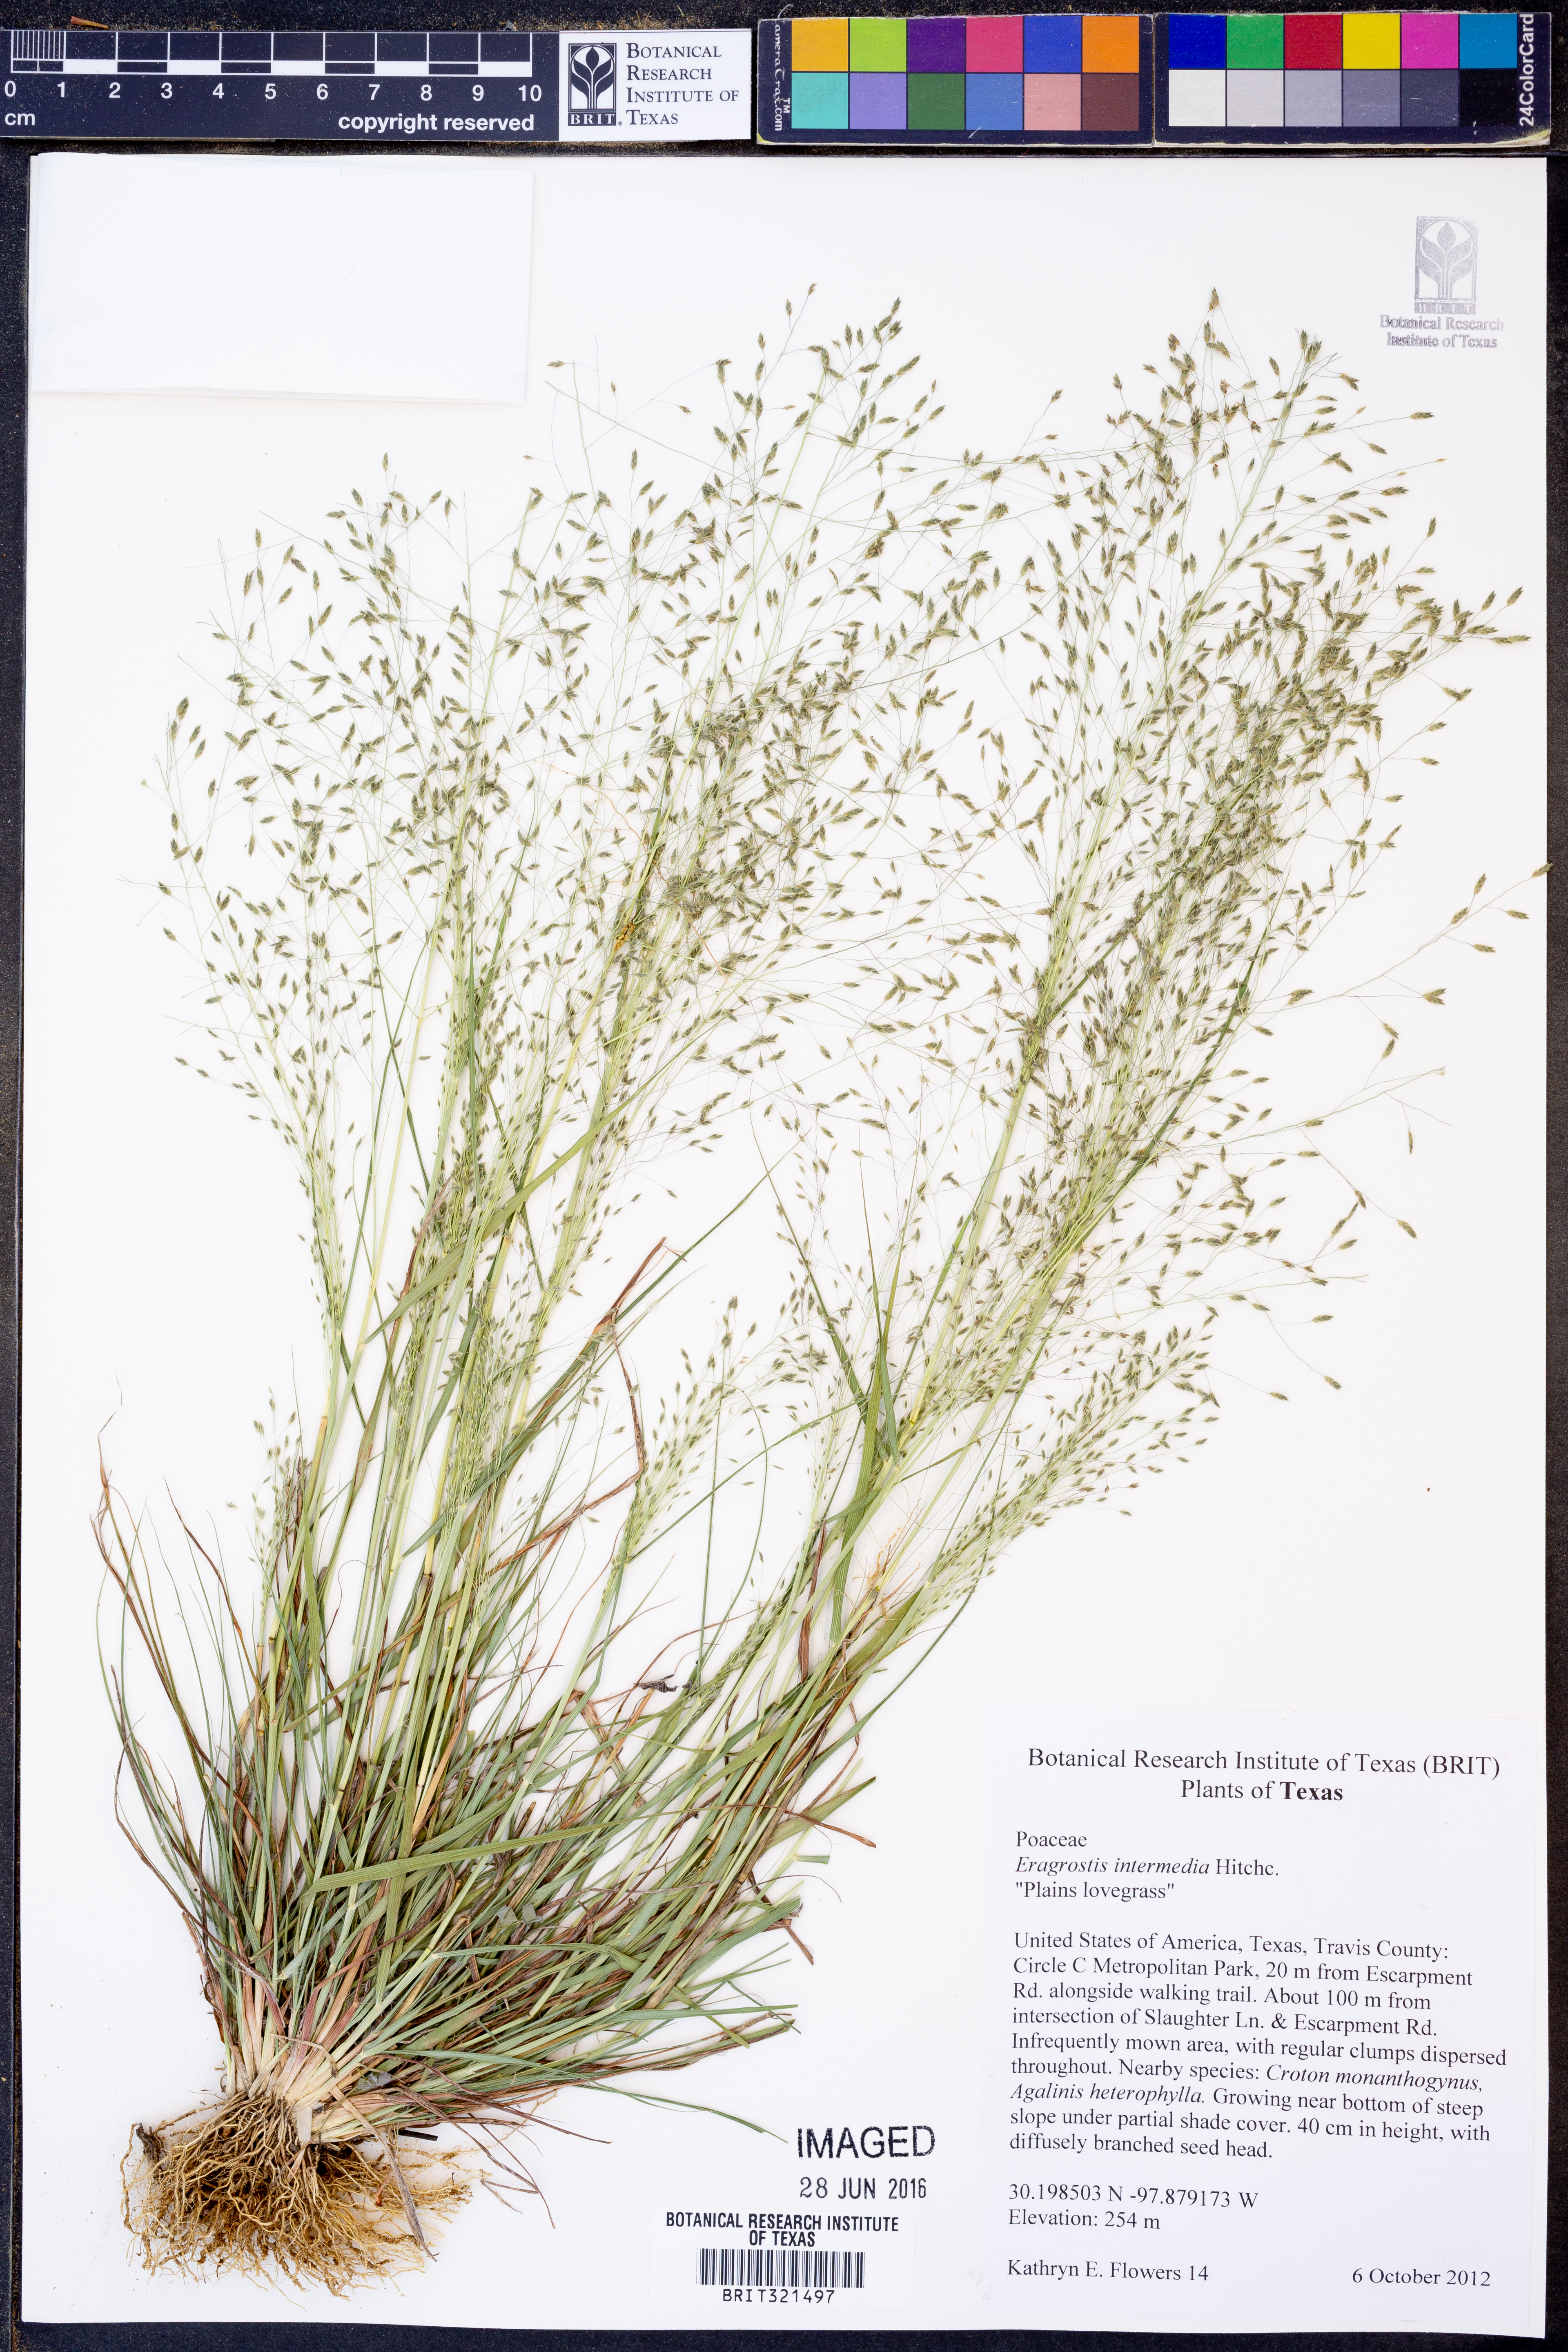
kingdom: Plantae
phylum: Tracheophyta
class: Liliopsida
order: Poales
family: Poaceae
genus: Eragrostis
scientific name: Eragrostis intermedia
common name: Plains love grass
